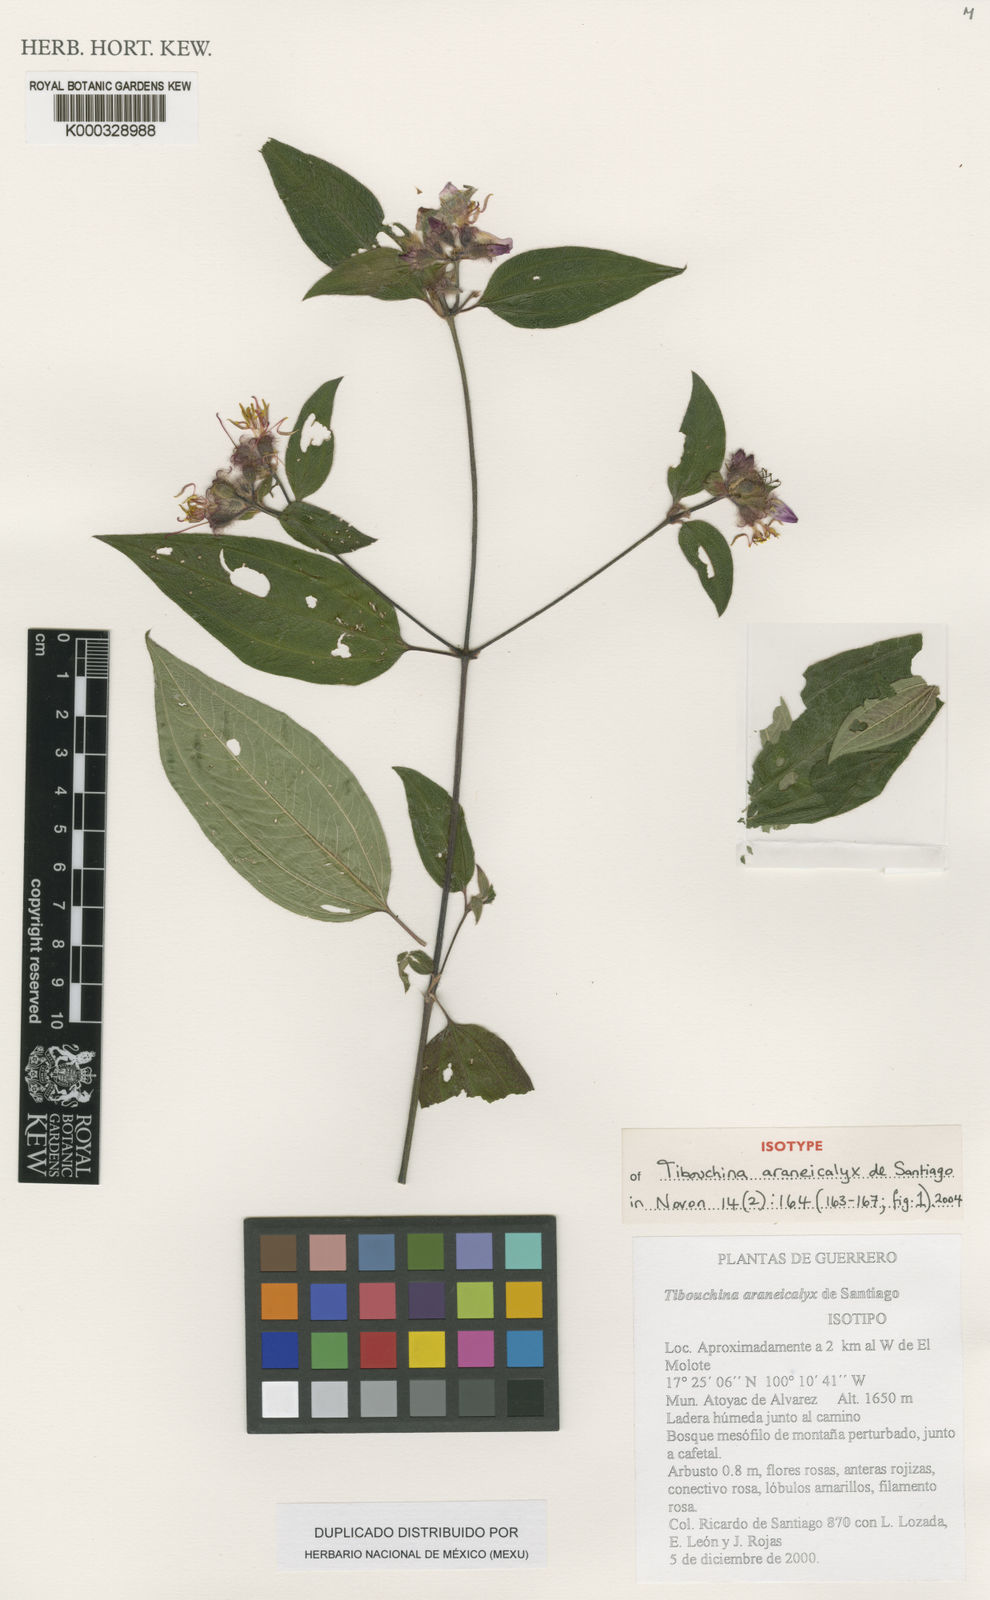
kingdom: Plantae
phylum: Tracheophyta
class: Magnoliopsida
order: Myrtales
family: Melastomataceae
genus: Chaetogastra
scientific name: Chaetogastra araneicalyx
